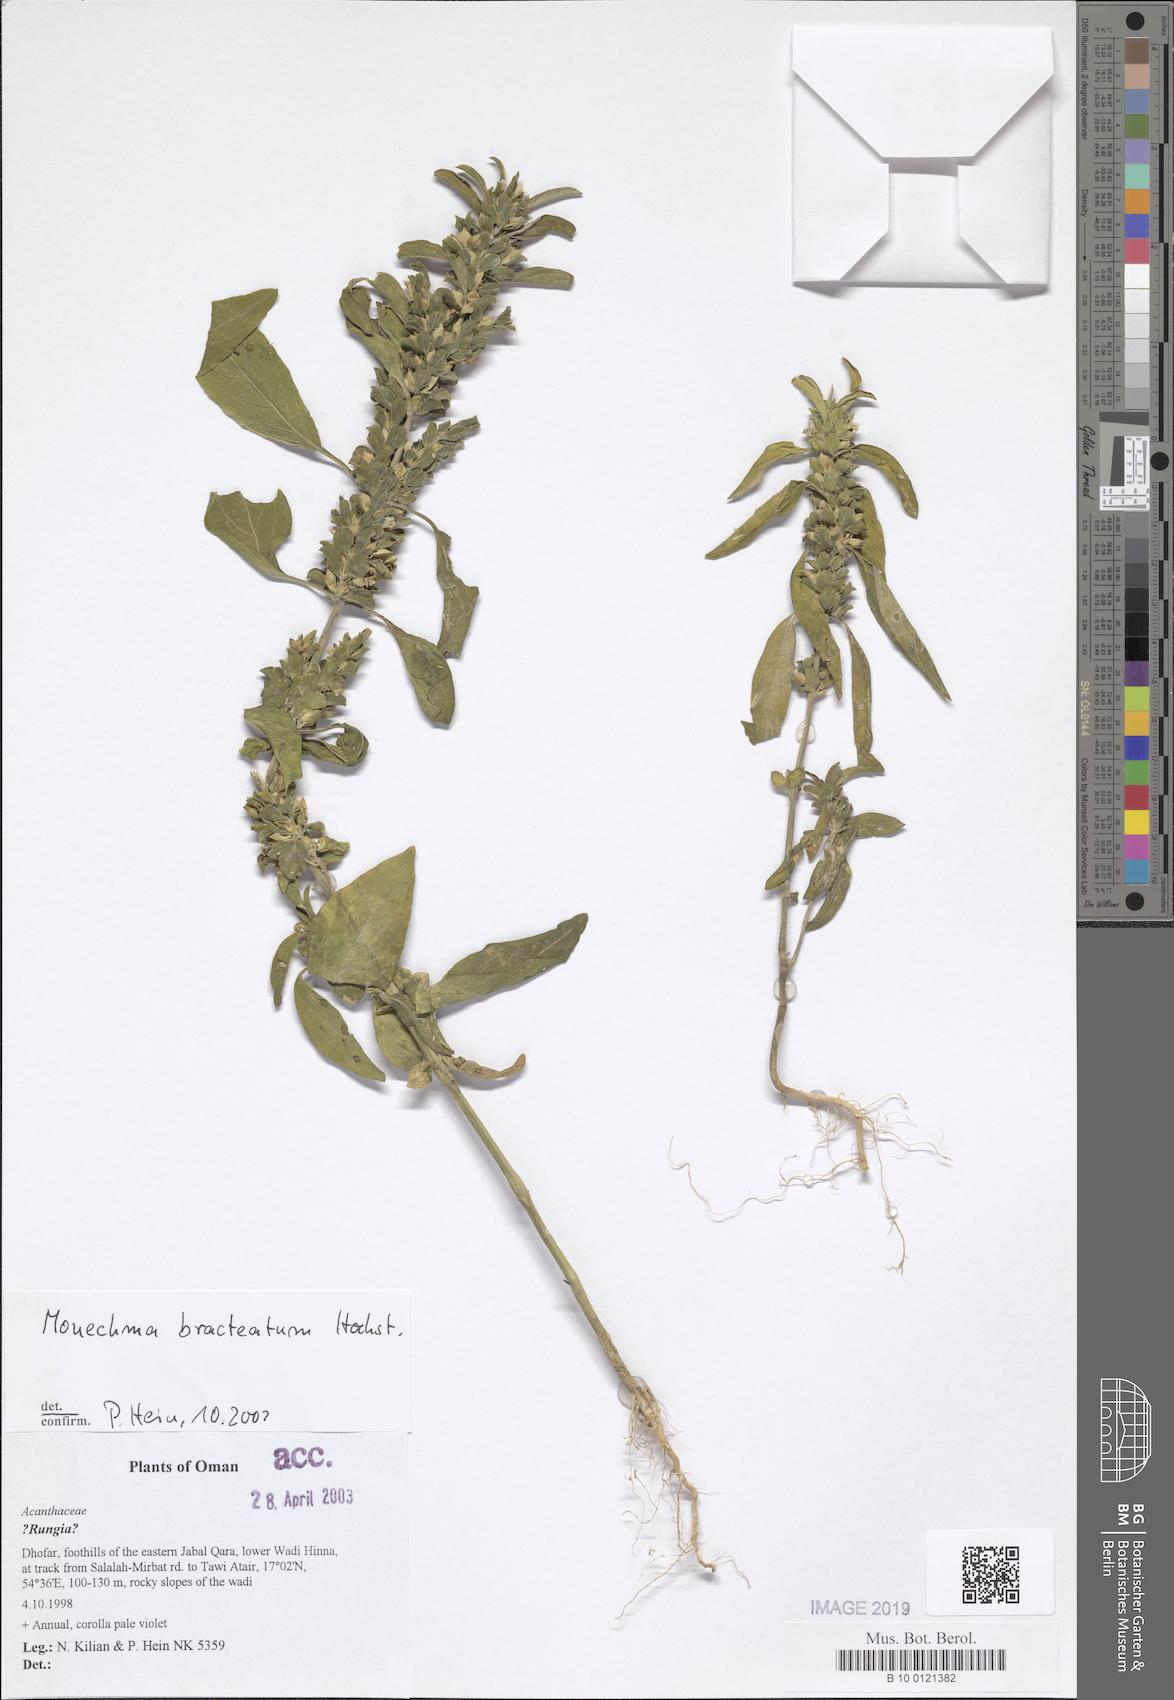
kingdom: Plantae
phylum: Tracheophyta
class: Magnoliopsida
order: Lamiales
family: Acanthaceae
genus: Monechma
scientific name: Monechma bracteatum
